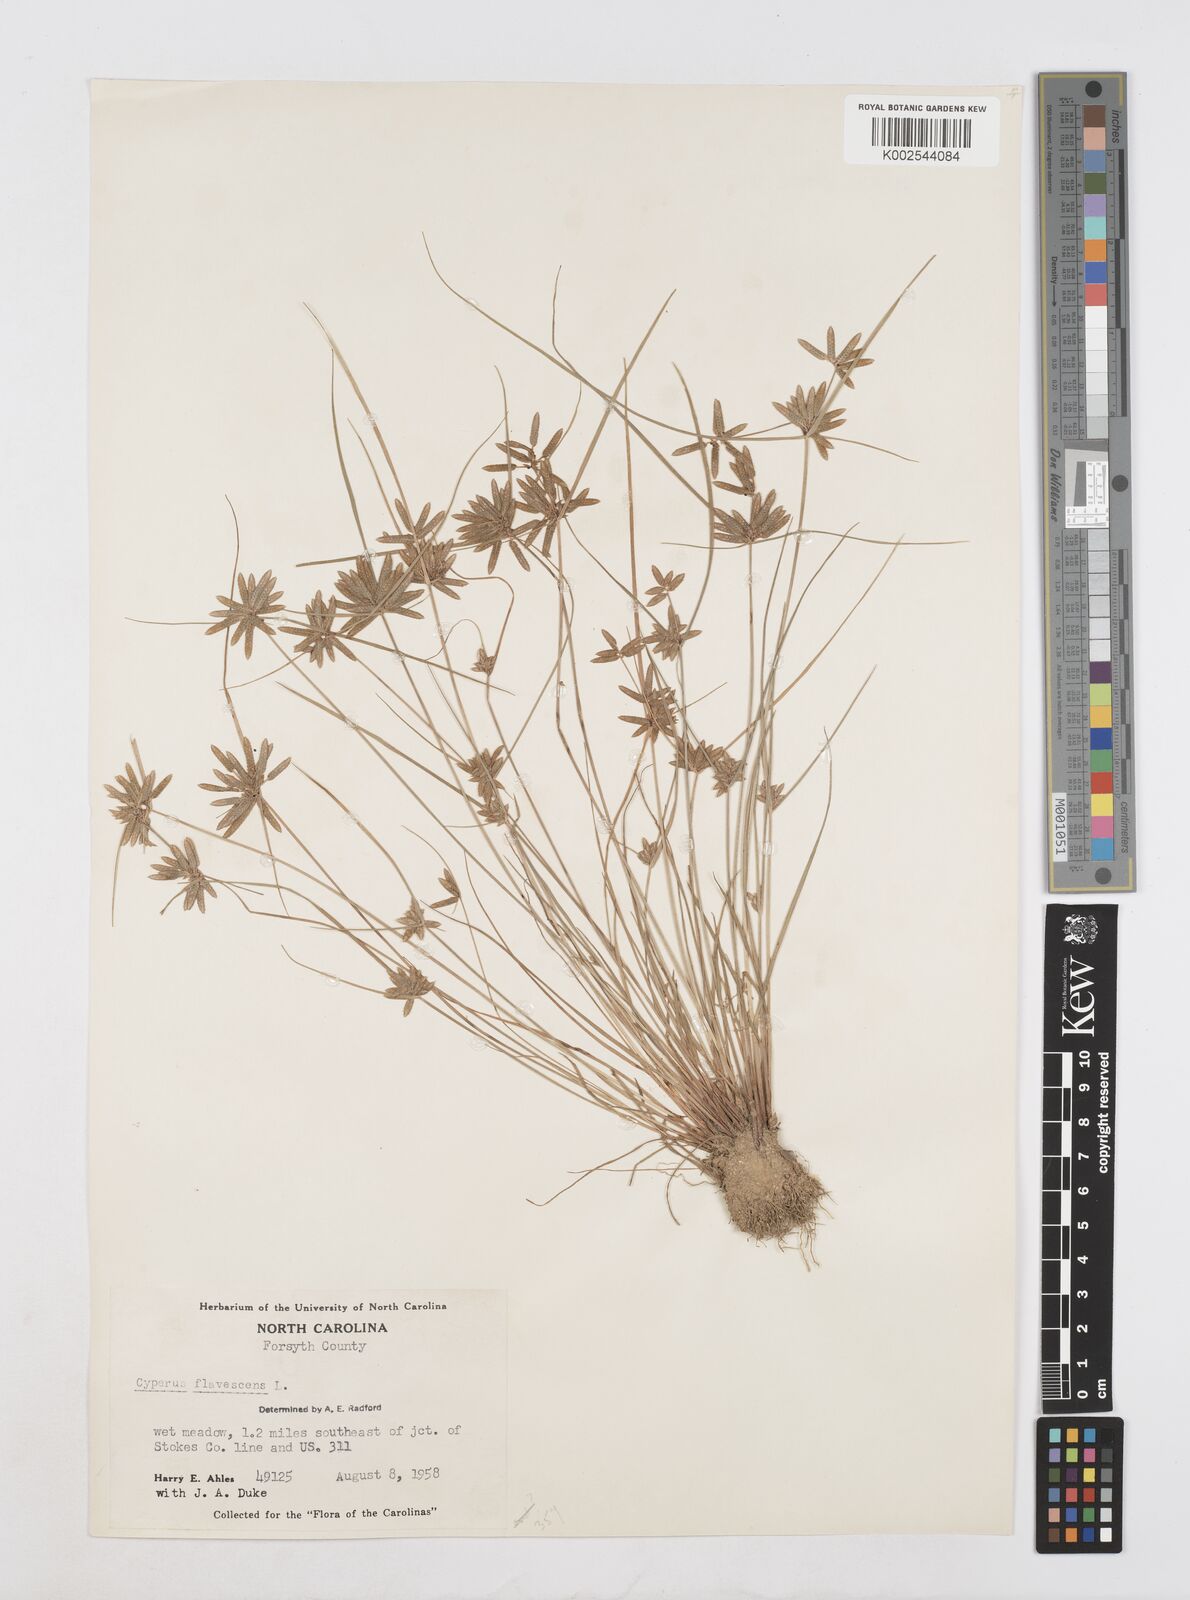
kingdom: Plantae
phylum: Tracheophyta
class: Liliopsida
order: Poales
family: Cyperaceae
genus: Cyperus
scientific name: Cyperus flavescens
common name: Yellow galingale
